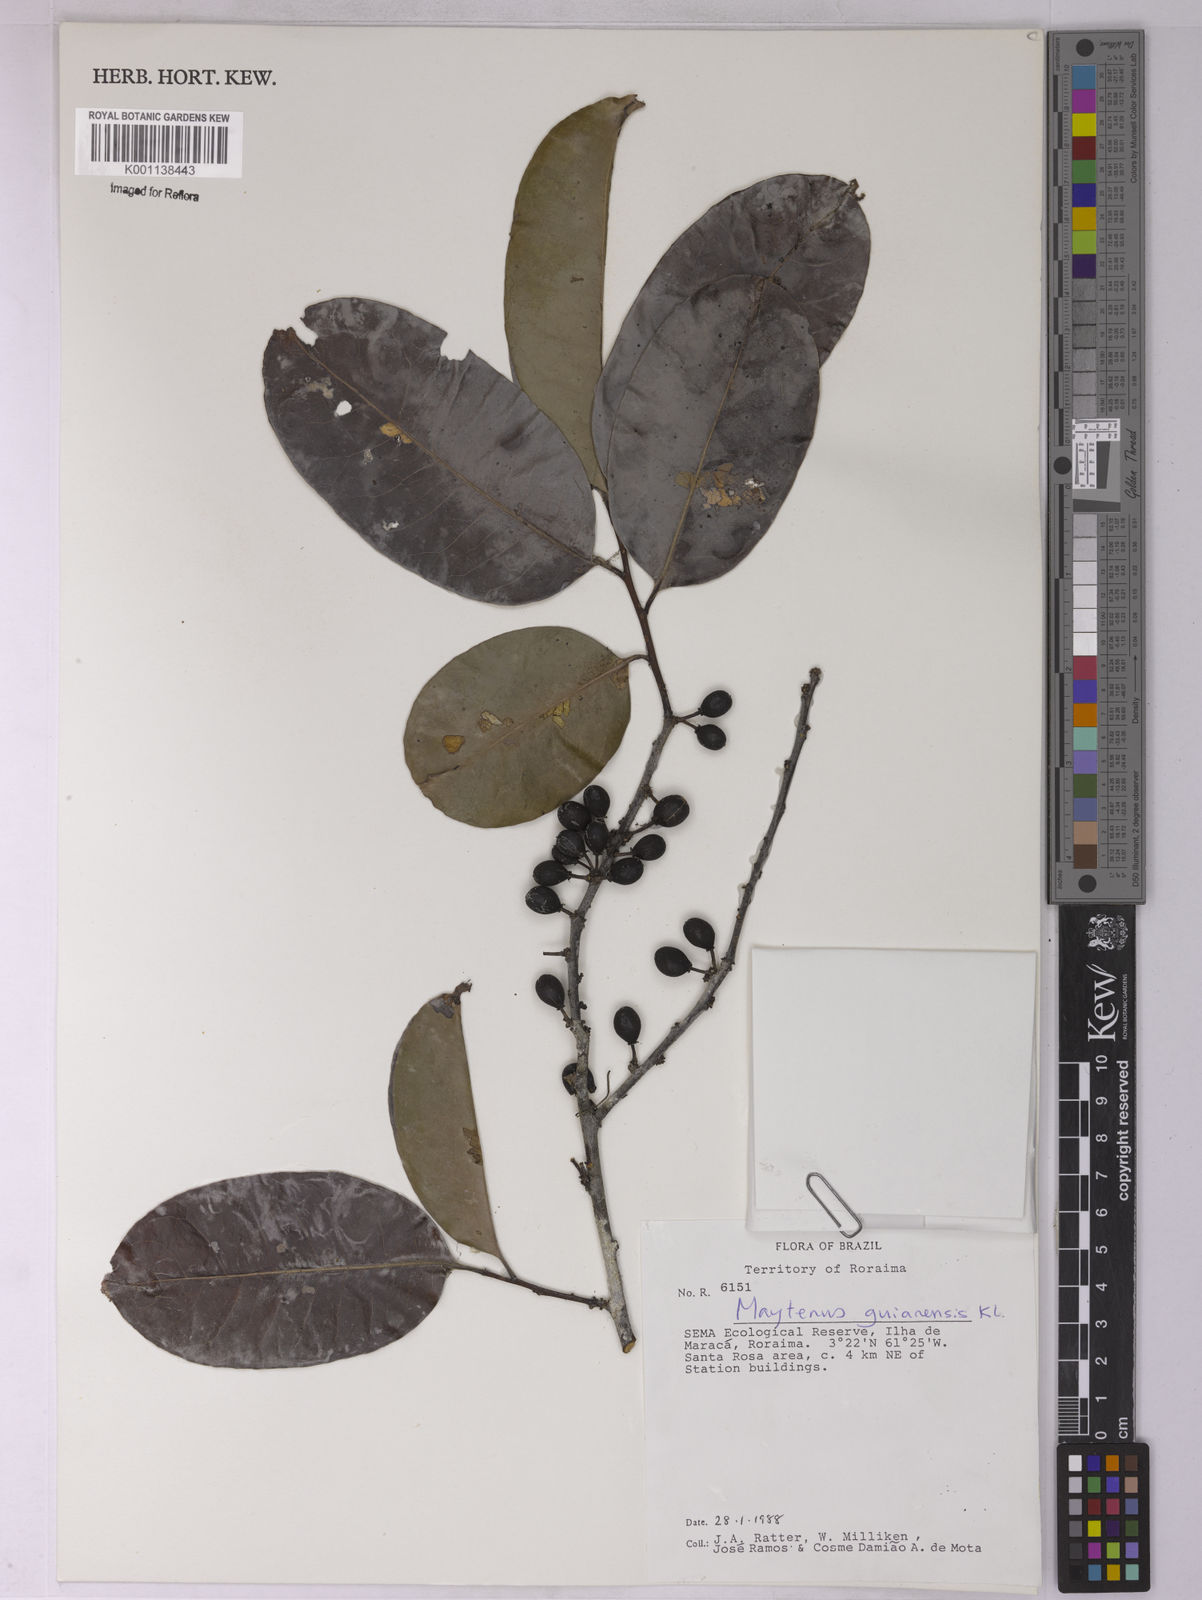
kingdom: Plantae
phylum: Tracheophyta
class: Magnoliopsida
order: Celastrales
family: Celastraceae
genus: Monteverdia
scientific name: Monteverdia guyanensis
